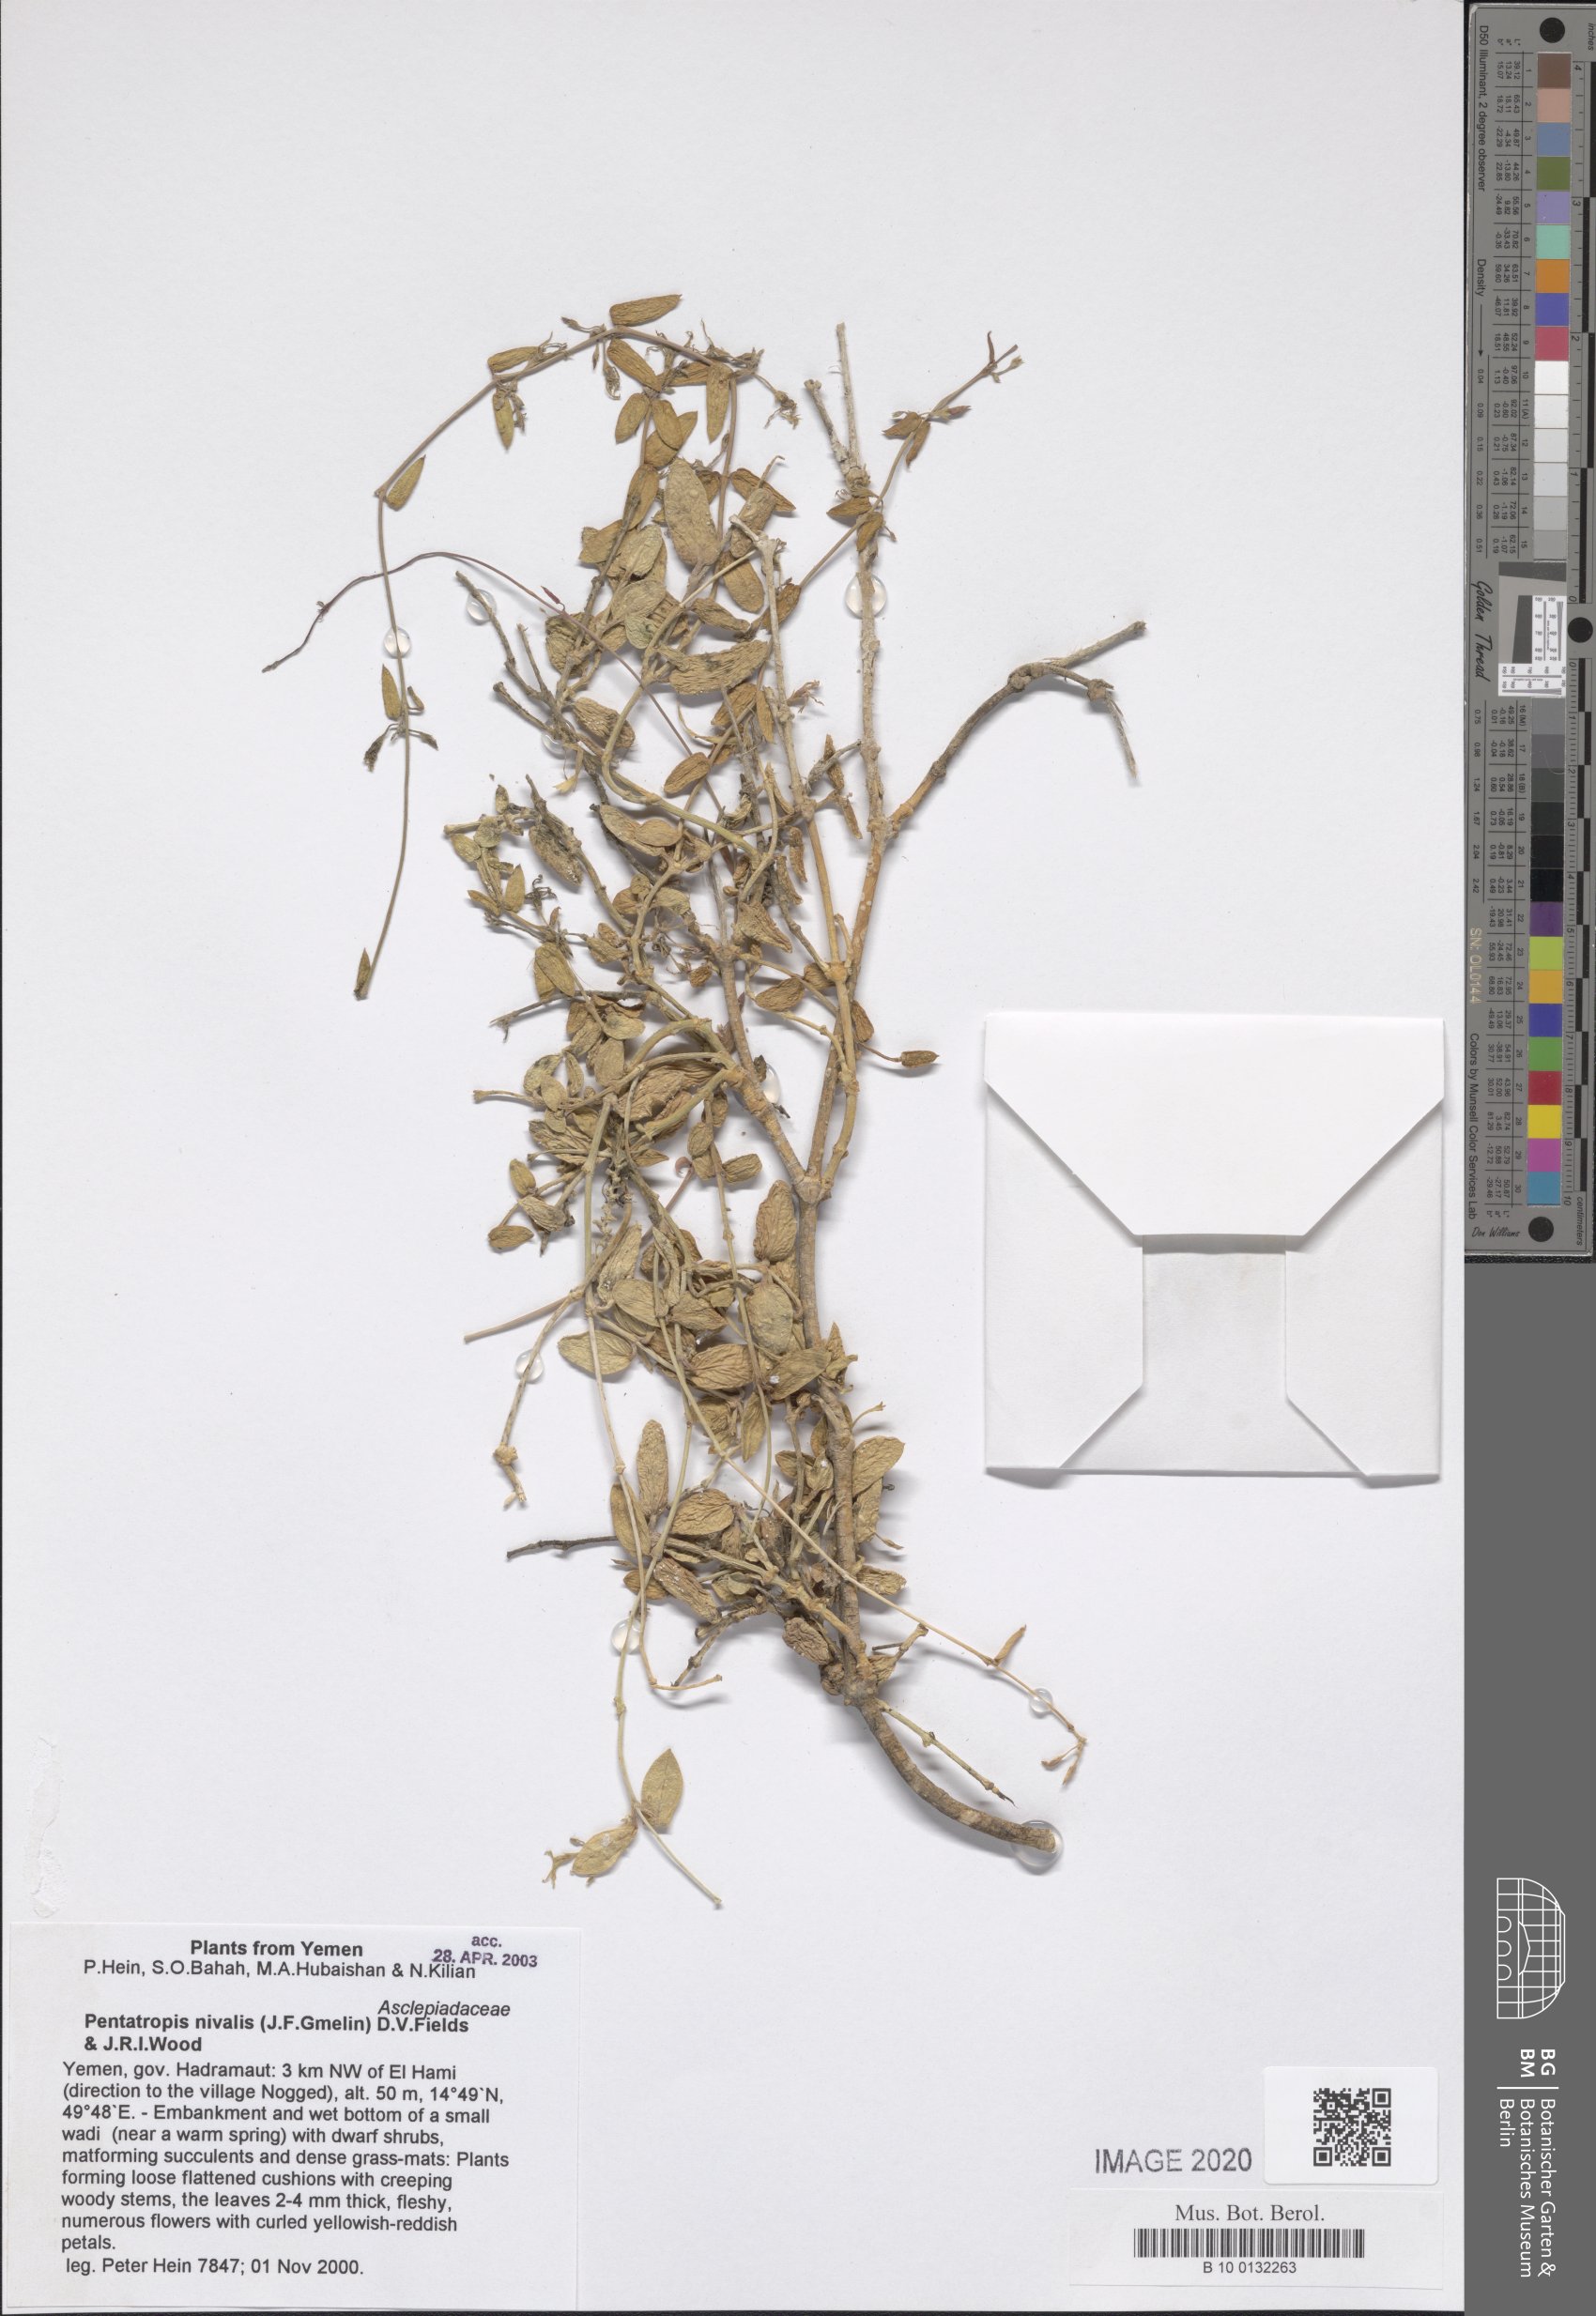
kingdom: Plantae
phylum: Tracheophyta
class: Magnoliopsida
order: Gentianales
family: Apocynaceae
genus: Pentatropis
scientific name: Pentatropis bentii
